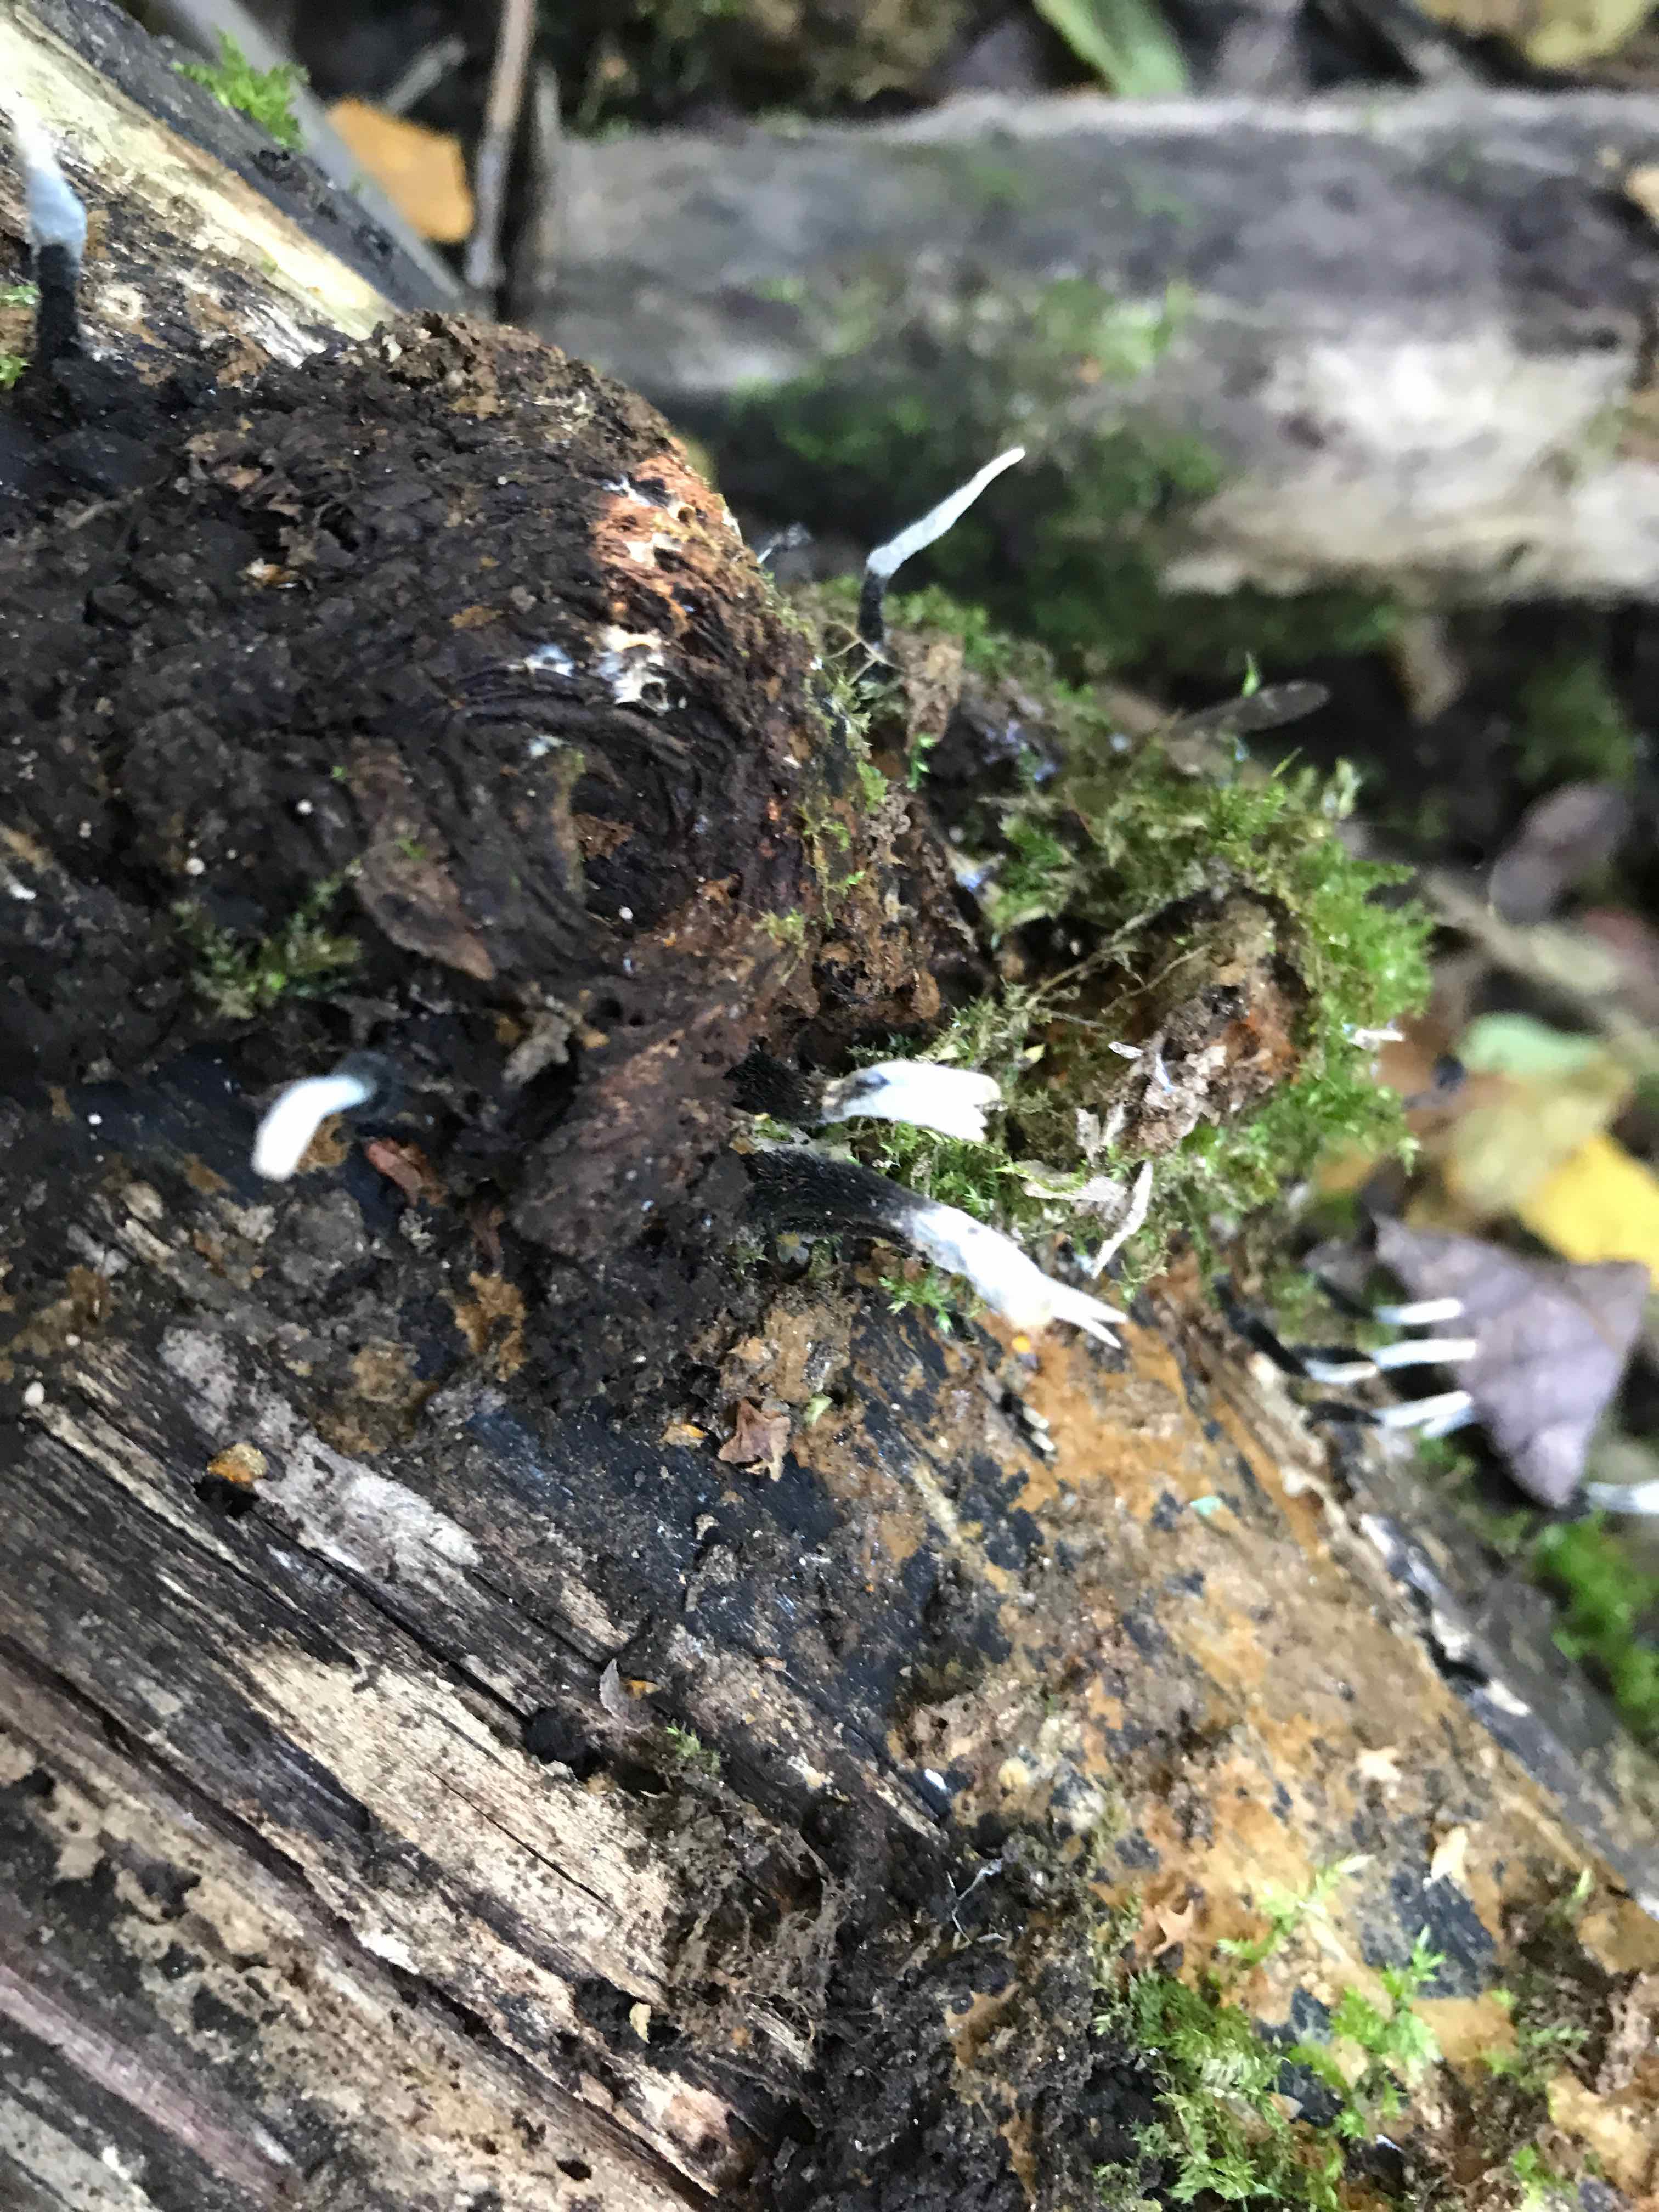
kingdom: Fungi
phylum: Ascomycota
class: Sordariomycetes
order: Xylariales
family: Xylariaceae
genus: Xylaria
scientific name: Xylaria hypoxylon
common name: grenet stødsvamp
